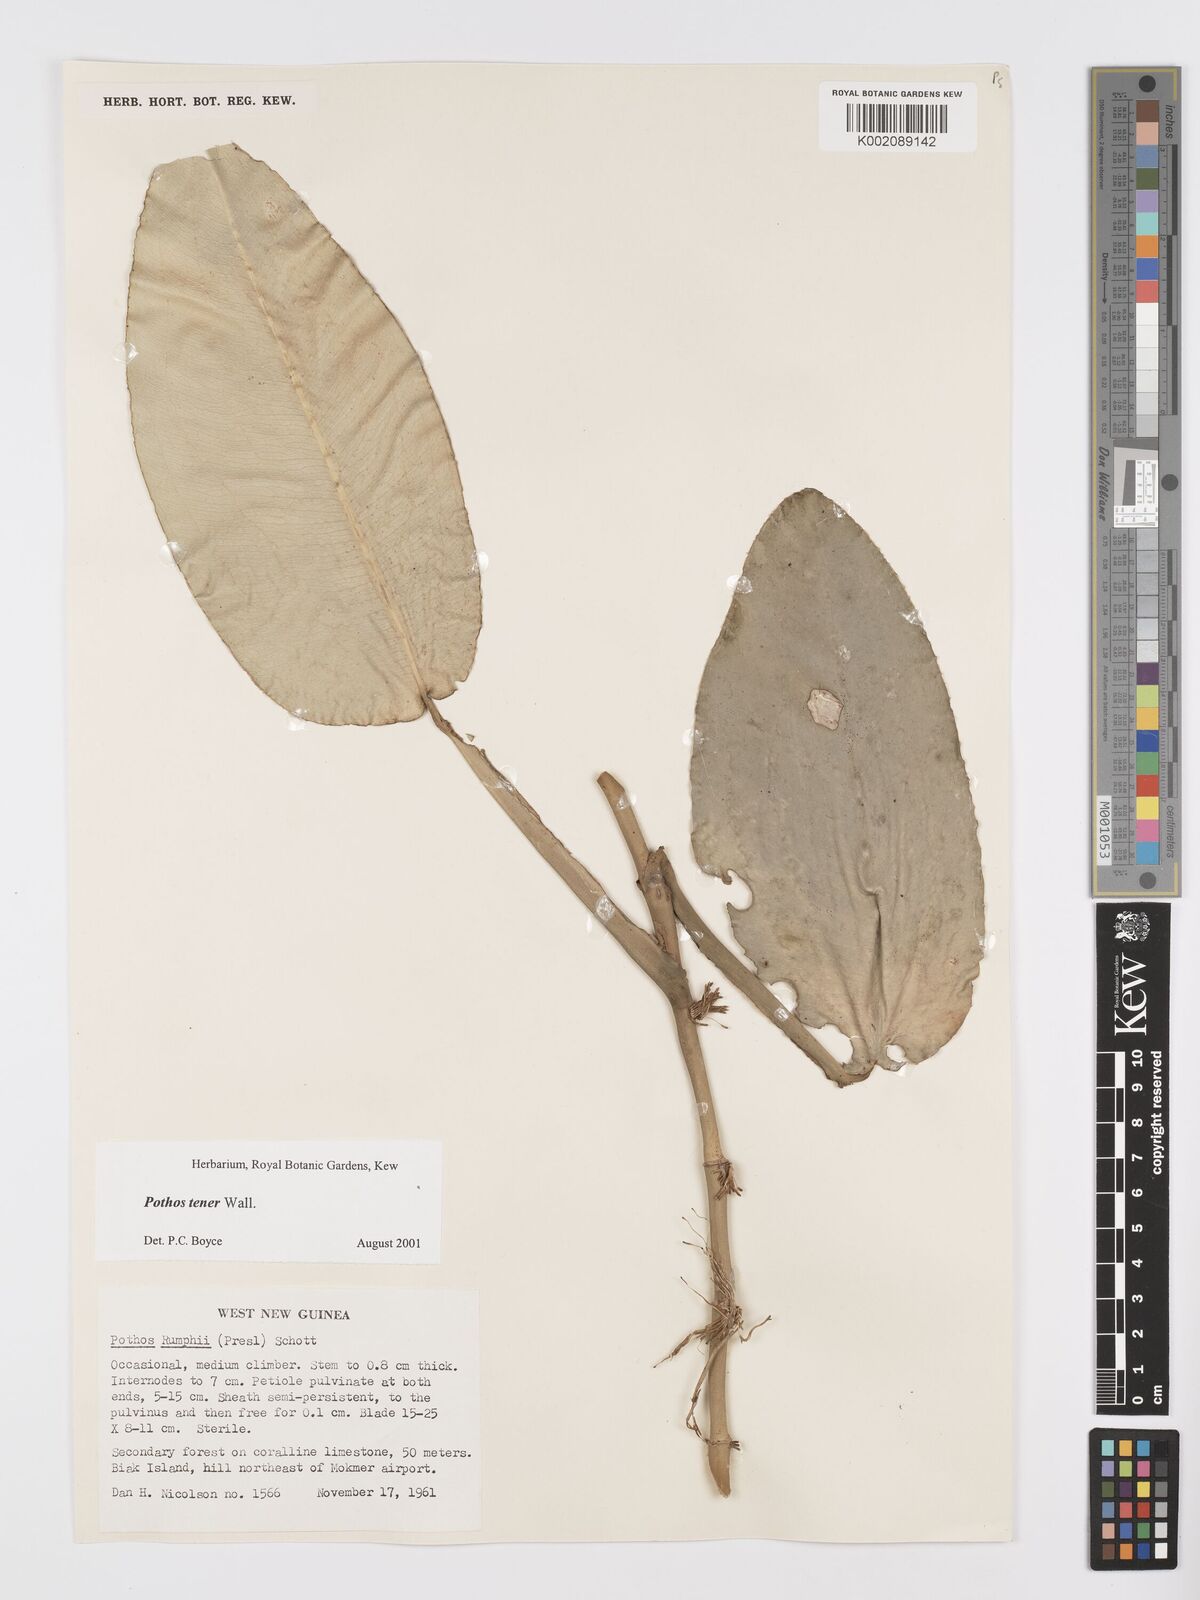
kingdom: Plantae
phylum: Tracheophyta
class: Liliopsida
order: Alismatales
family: Araceae
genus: Pothos
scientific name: Pothos tener
